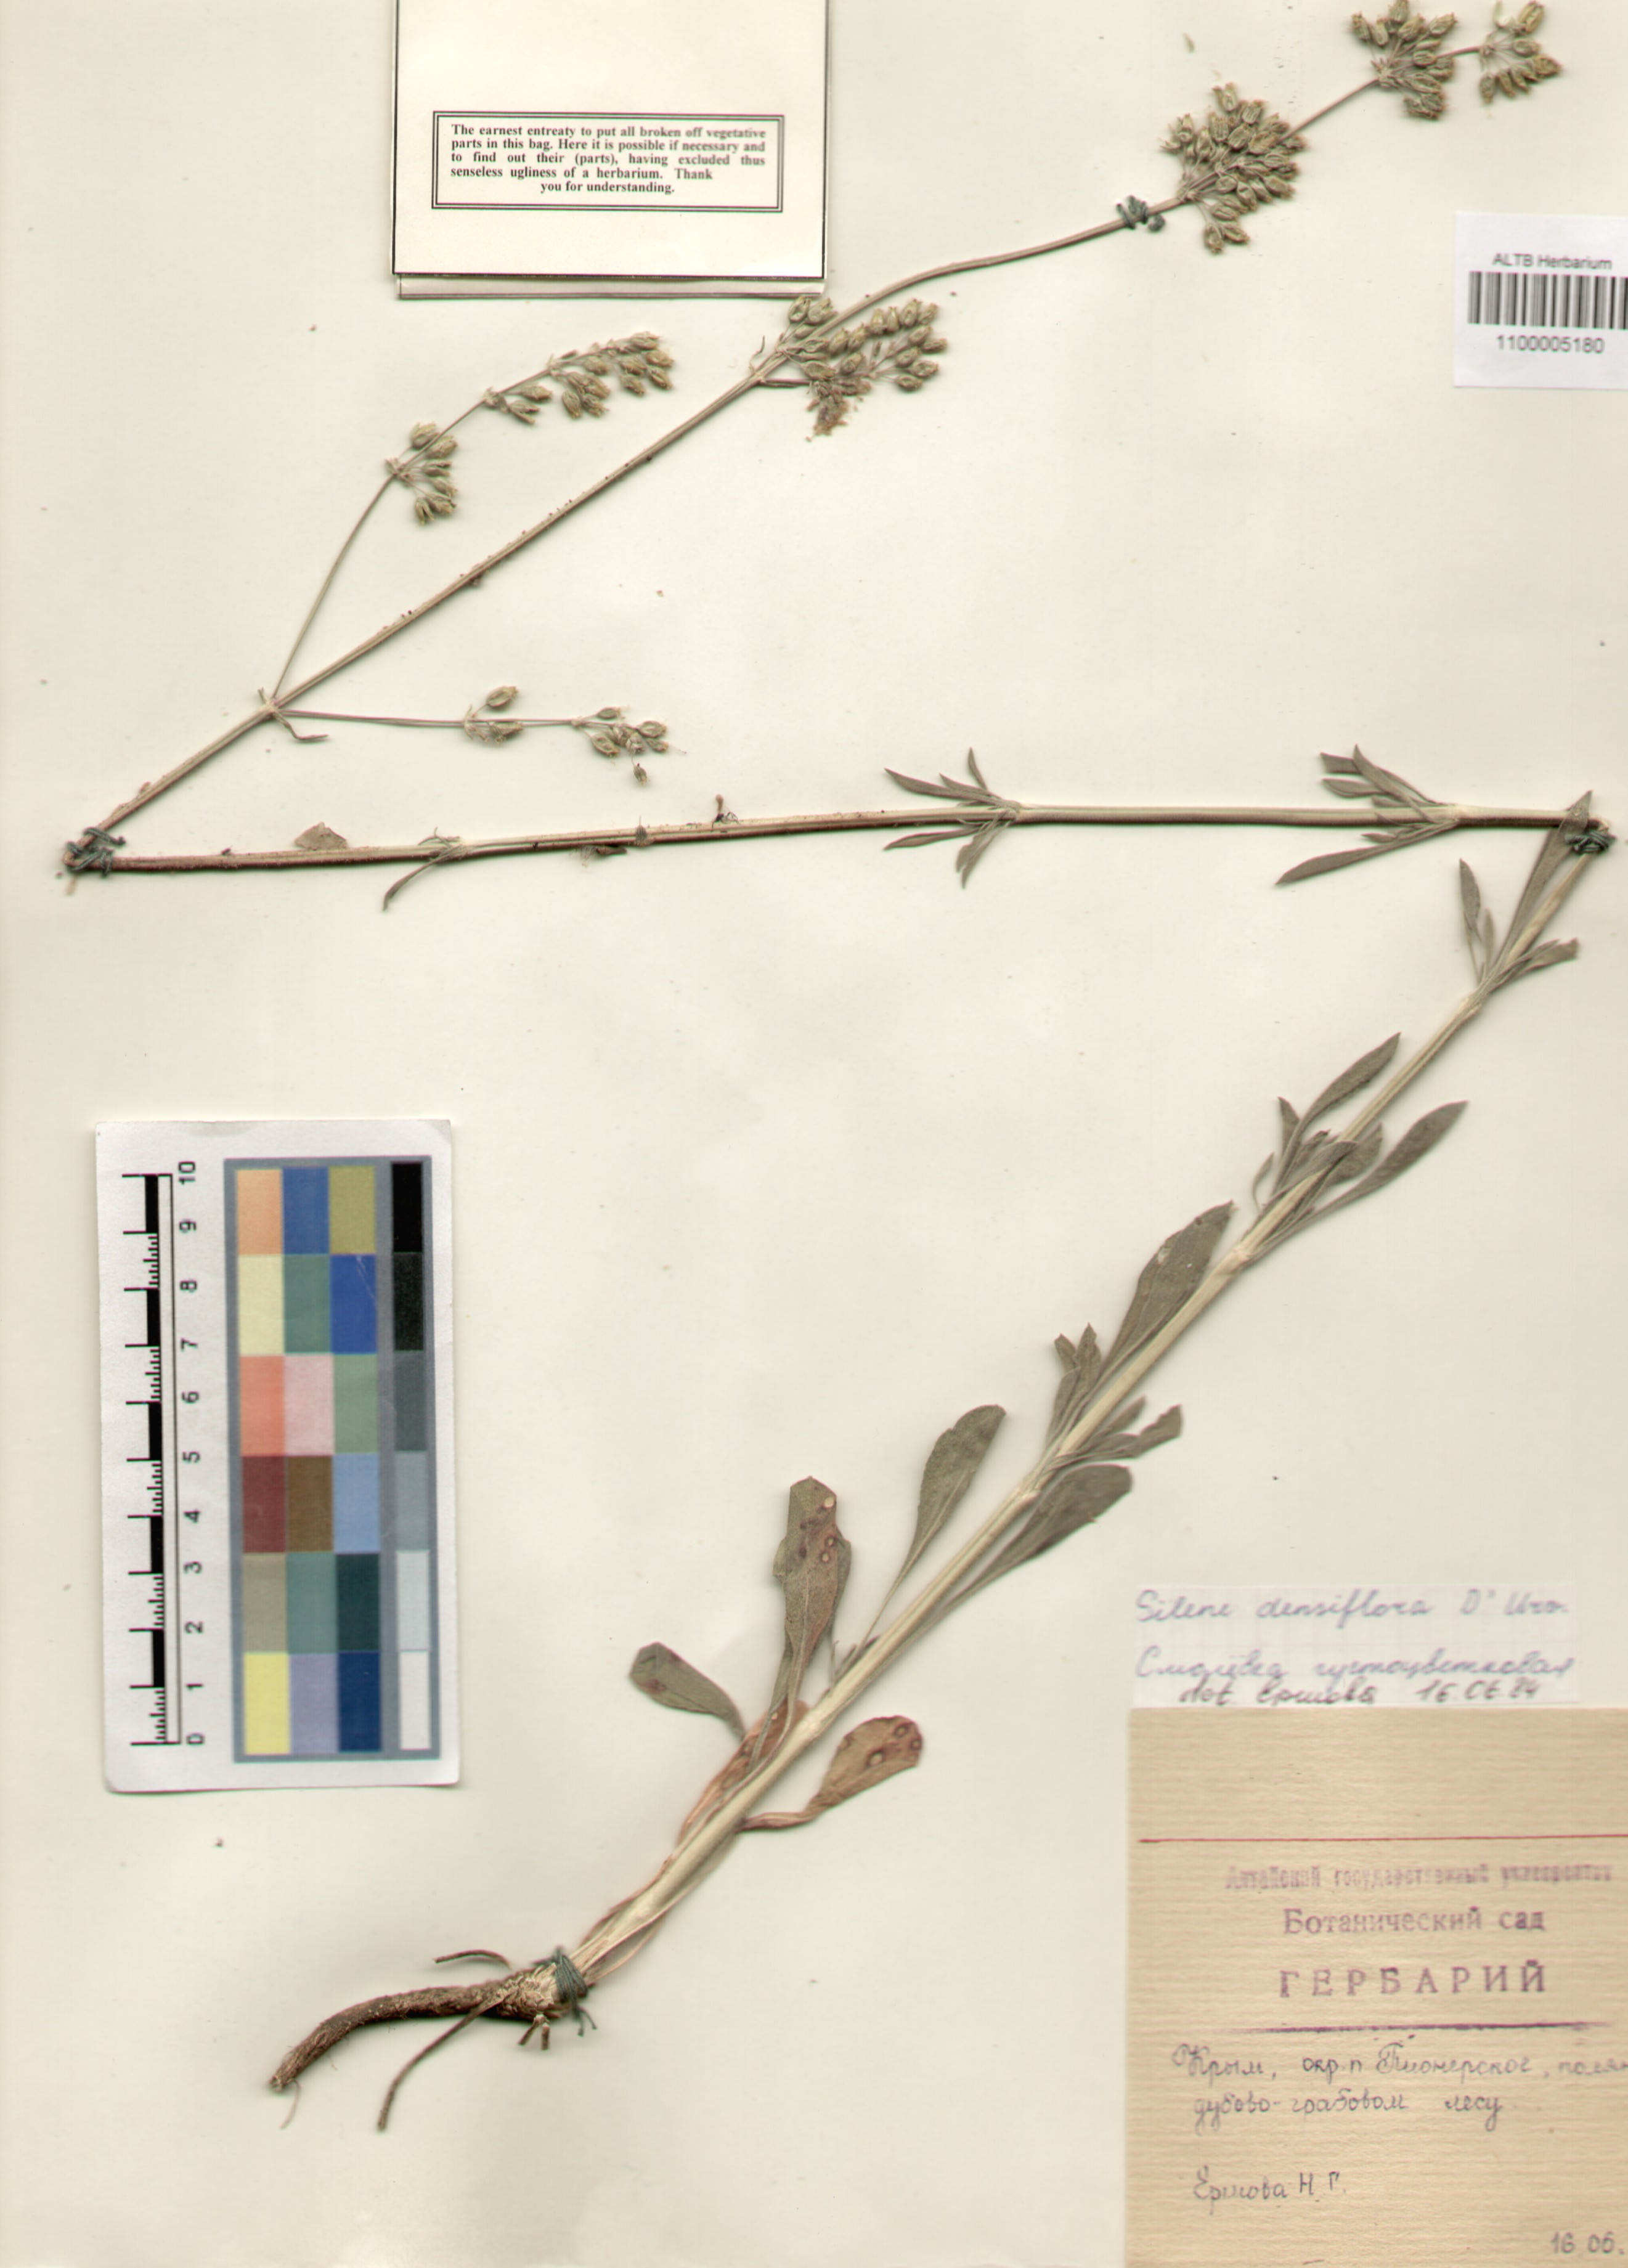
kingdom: Plantae
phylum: Tracheophyta
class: Magnoliopsida
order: Caryophyllales
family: Caryophyllaceae
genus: Silene
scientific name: Silene densiflora
